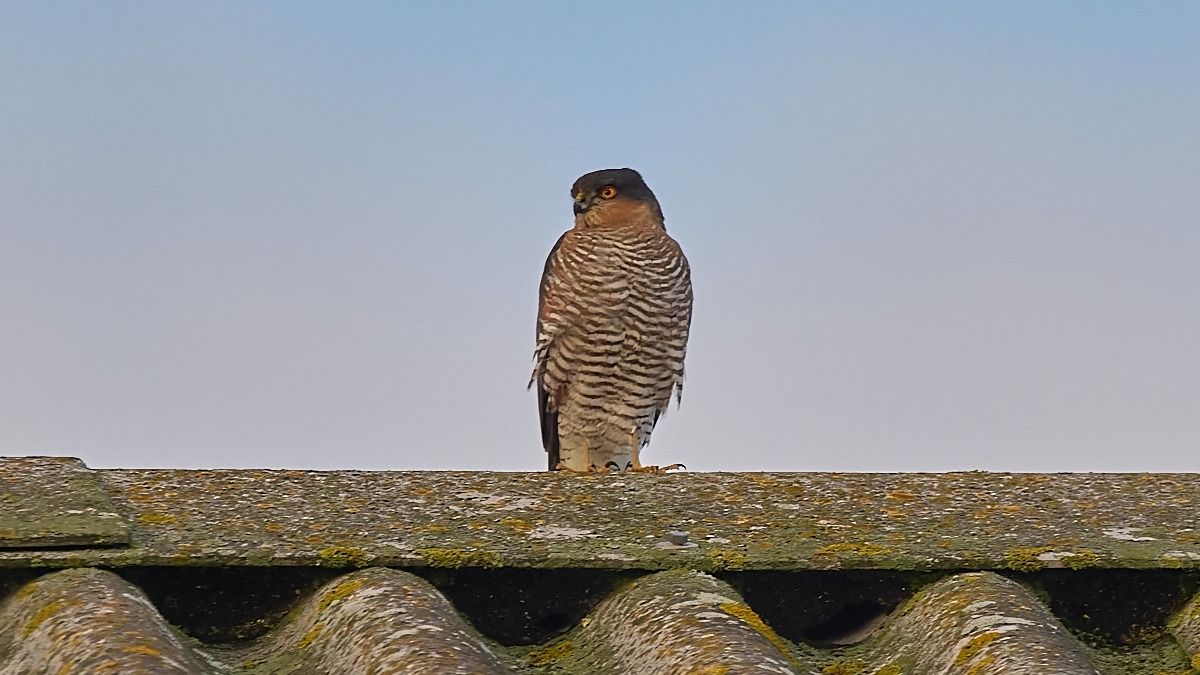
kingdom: Animalia
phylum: Chordata
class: Aves
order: Accipitriformes
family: Accipitridae
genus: Accipiter
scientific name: Accipiter nisus
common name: Spurvehøg
